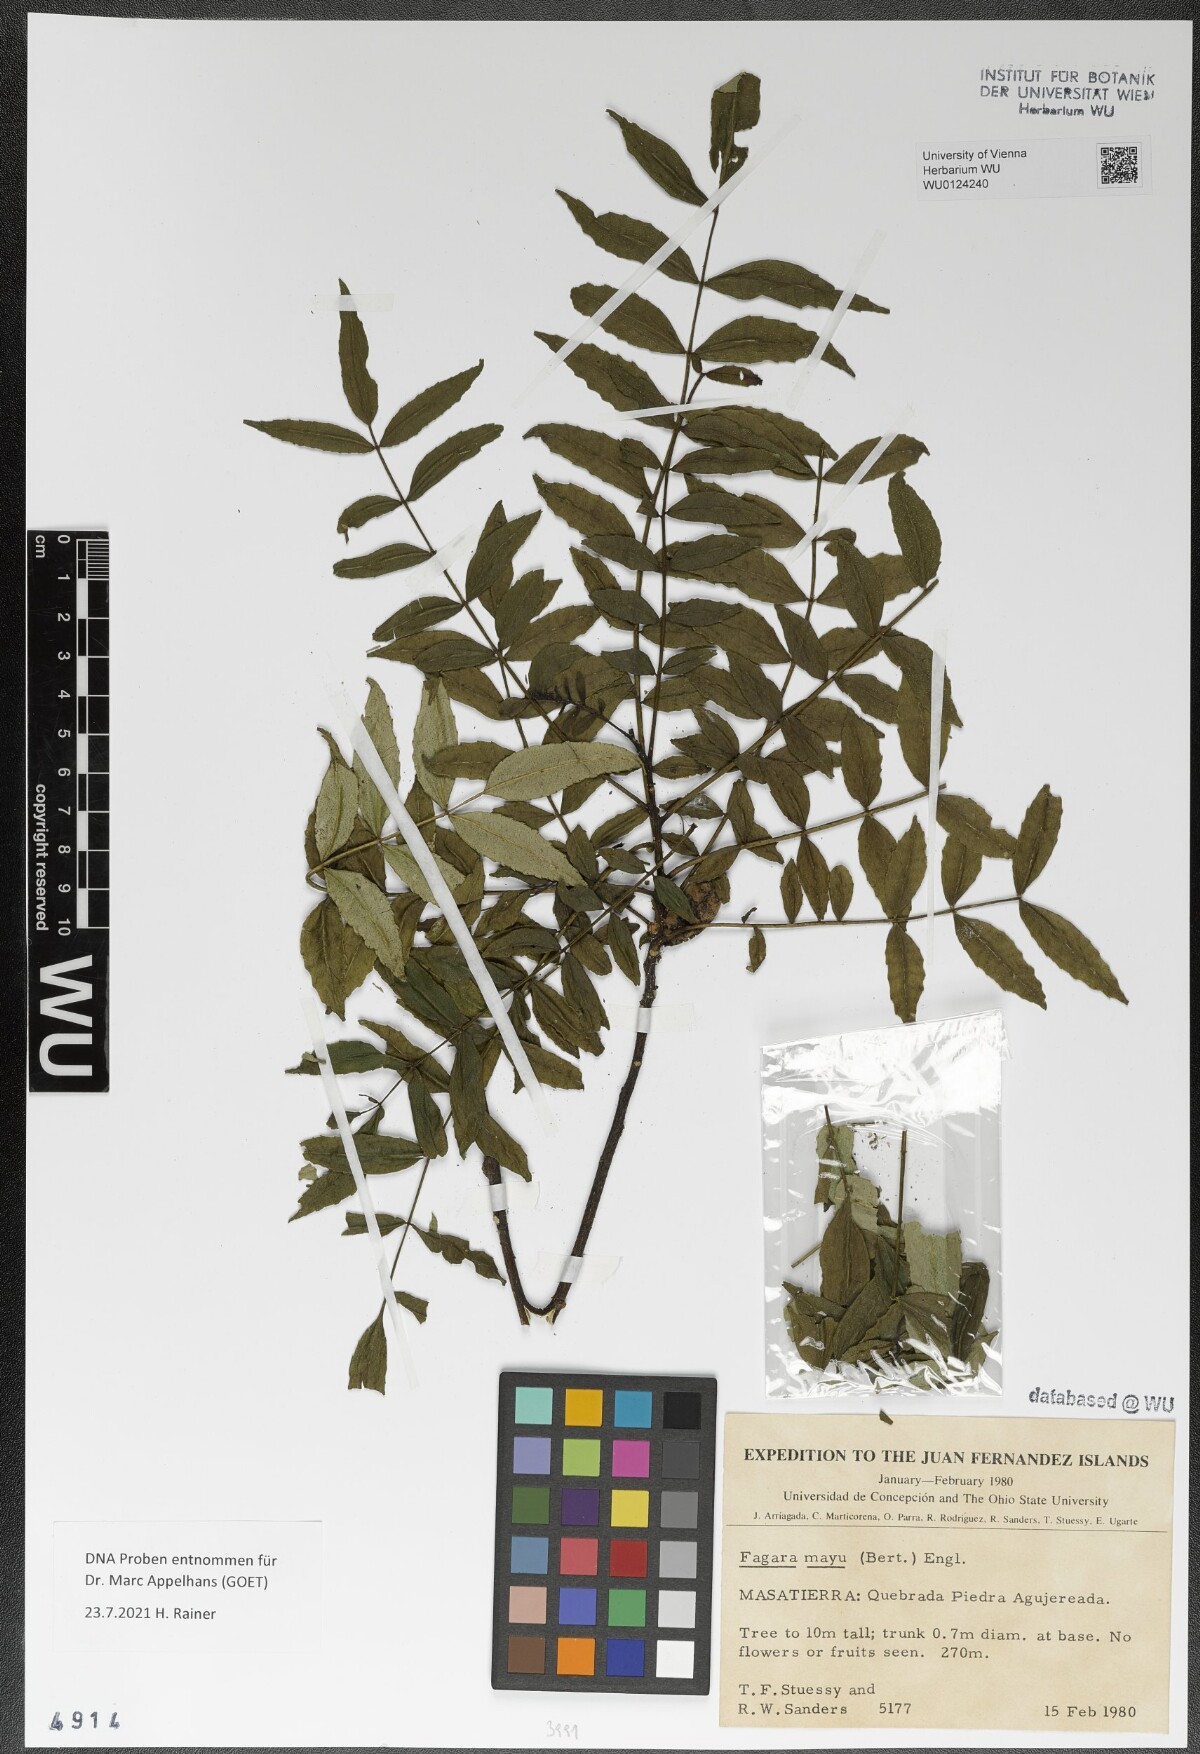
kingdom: Plantae
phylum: Tracheophyta
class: Magnoliopsida
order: Sapindales
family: Rutaceae
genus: Zanthoxylum
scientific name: Zanthoxylum mayu
